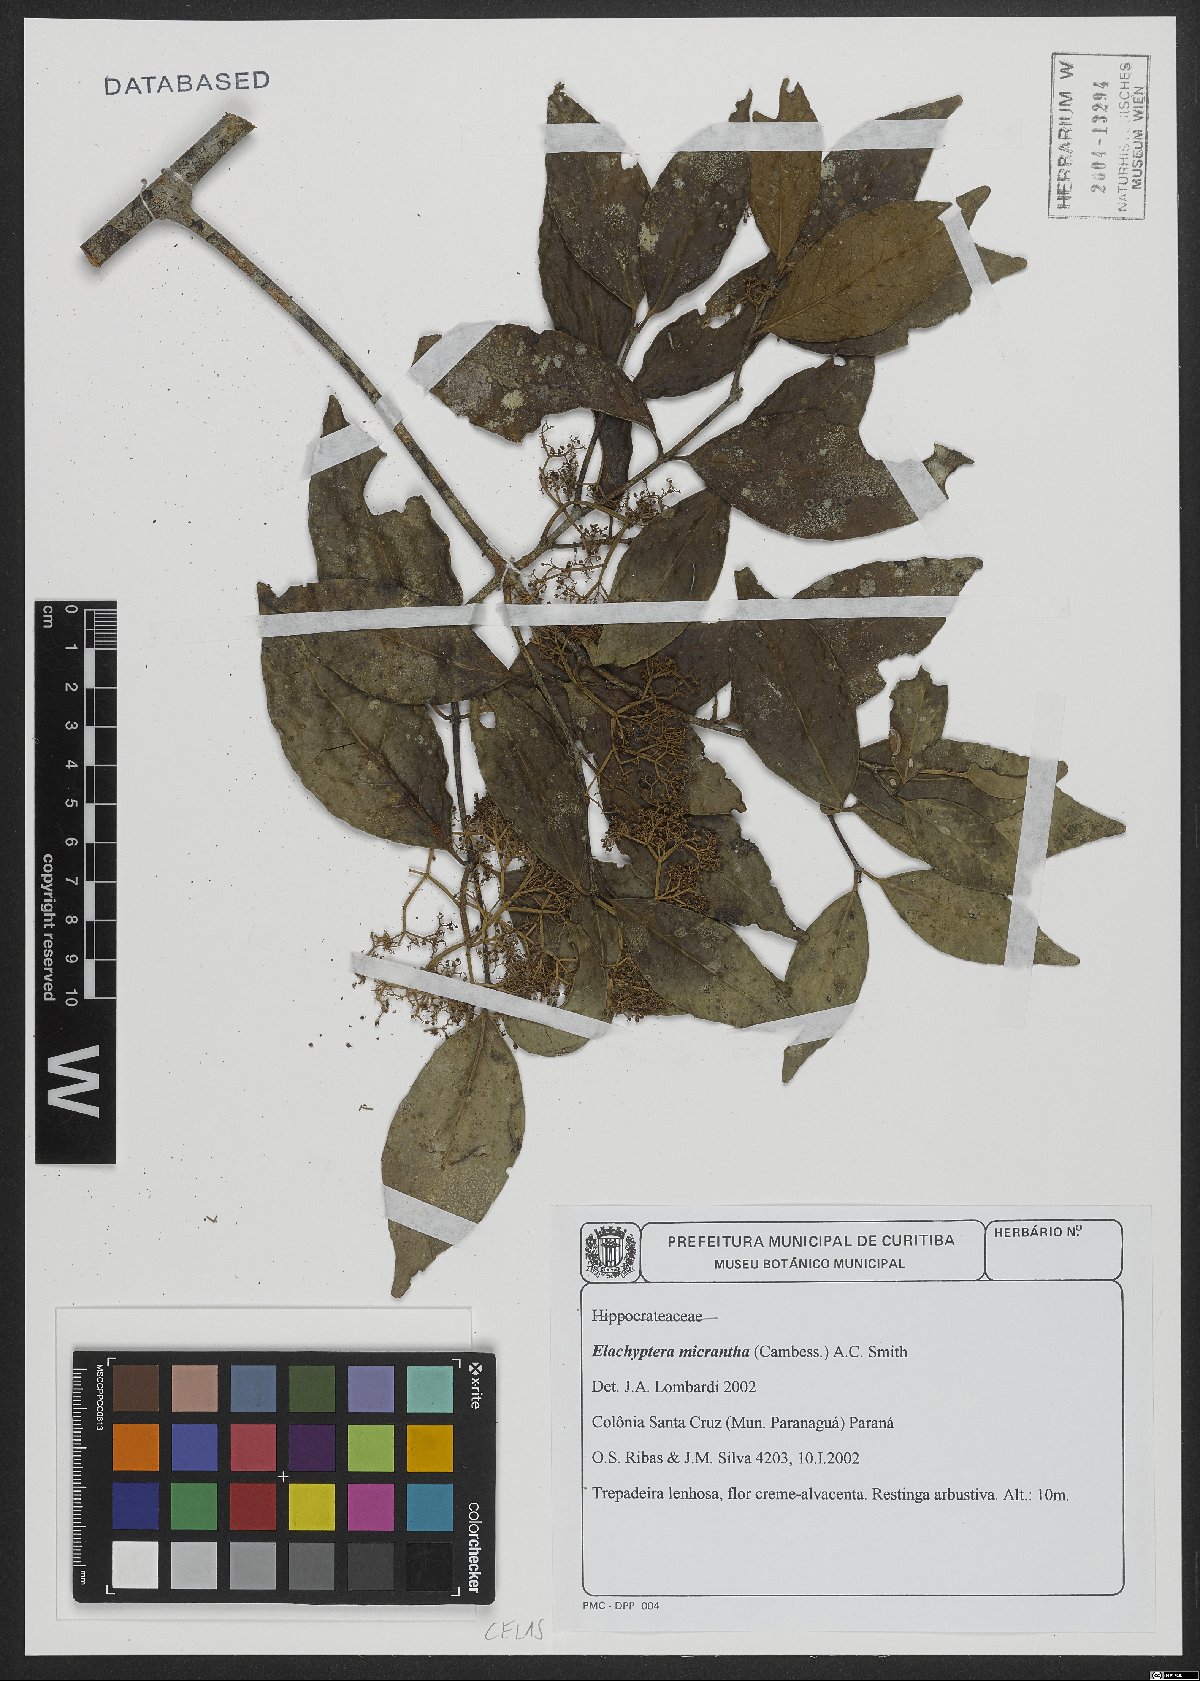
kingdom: Plantae
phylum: Tracheophyta
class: Magnoliopsida
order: Celastrales
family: Celastraceae
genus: Elachyptera
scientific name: Elachyptera micrantha
